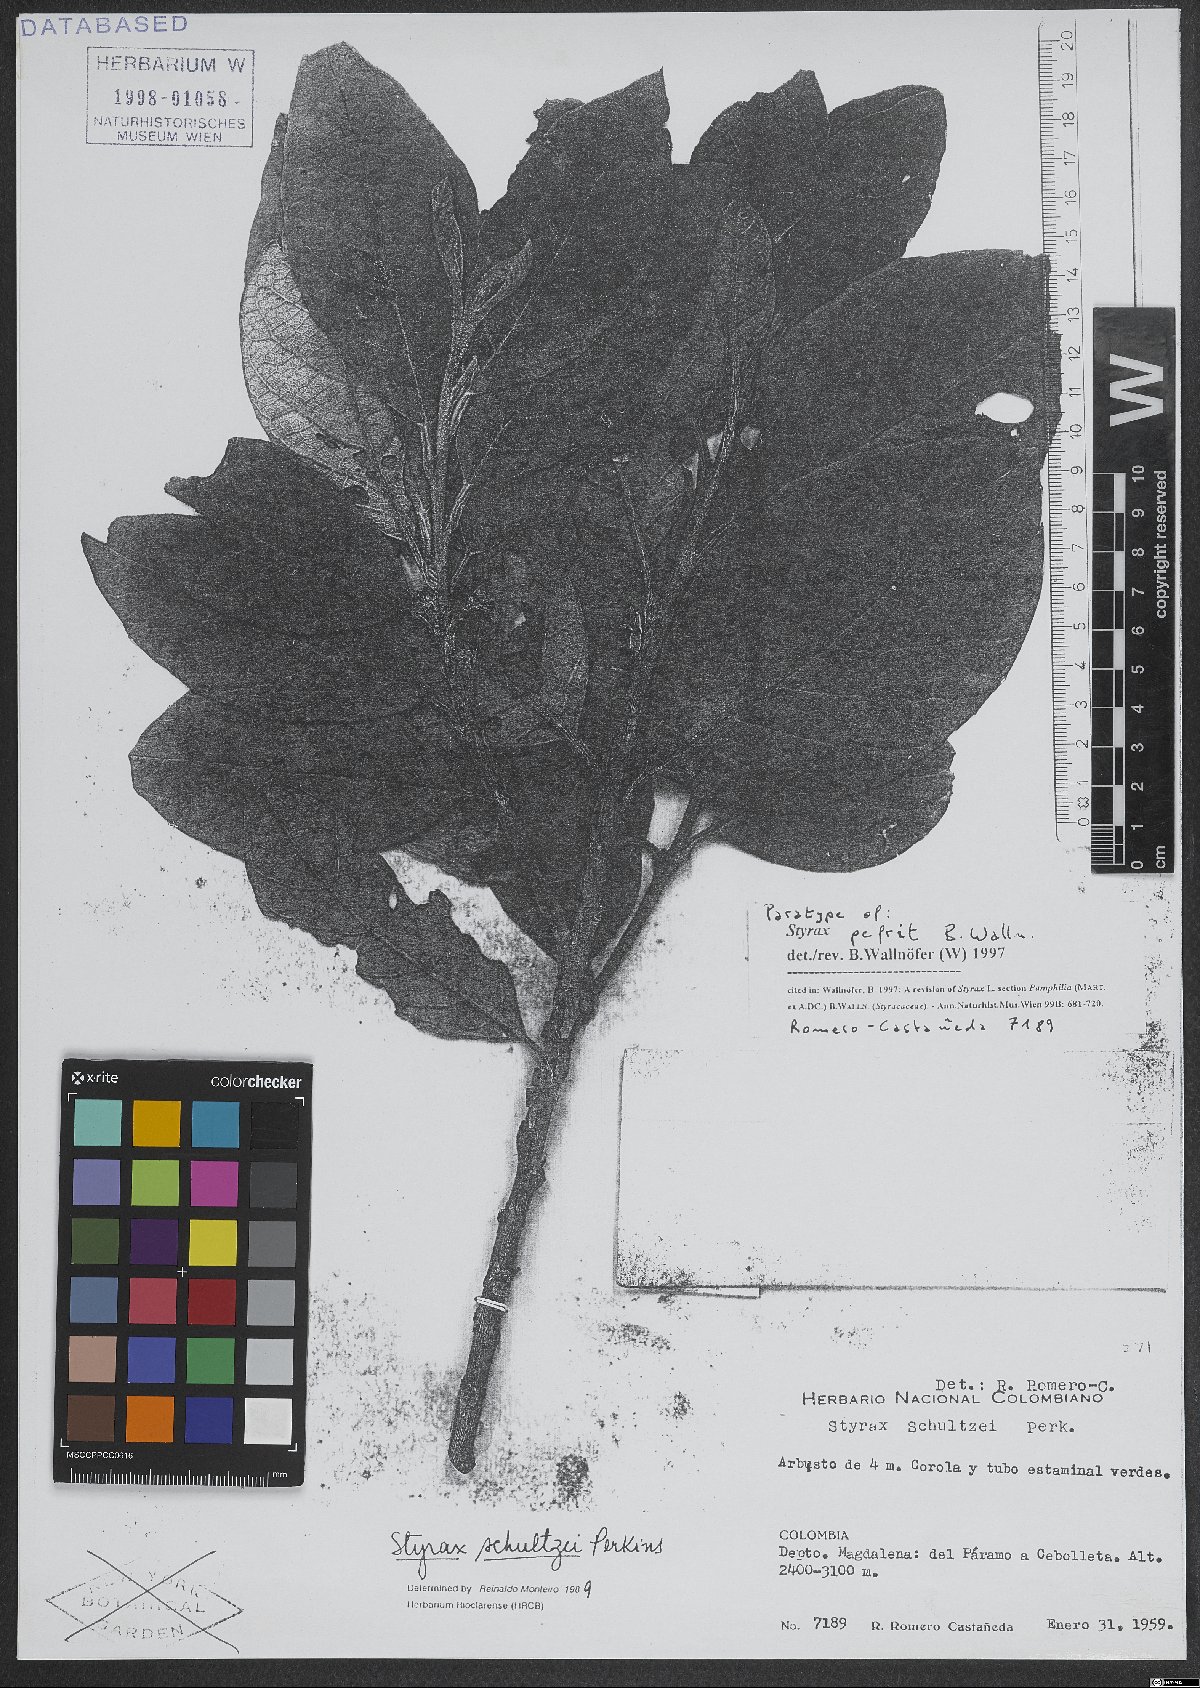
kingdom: Plantae
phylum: Tracheophyta
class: Magnoliopsida
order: Ericales
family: Styracaceae
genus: Styrax
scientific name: Styrax pefrit
